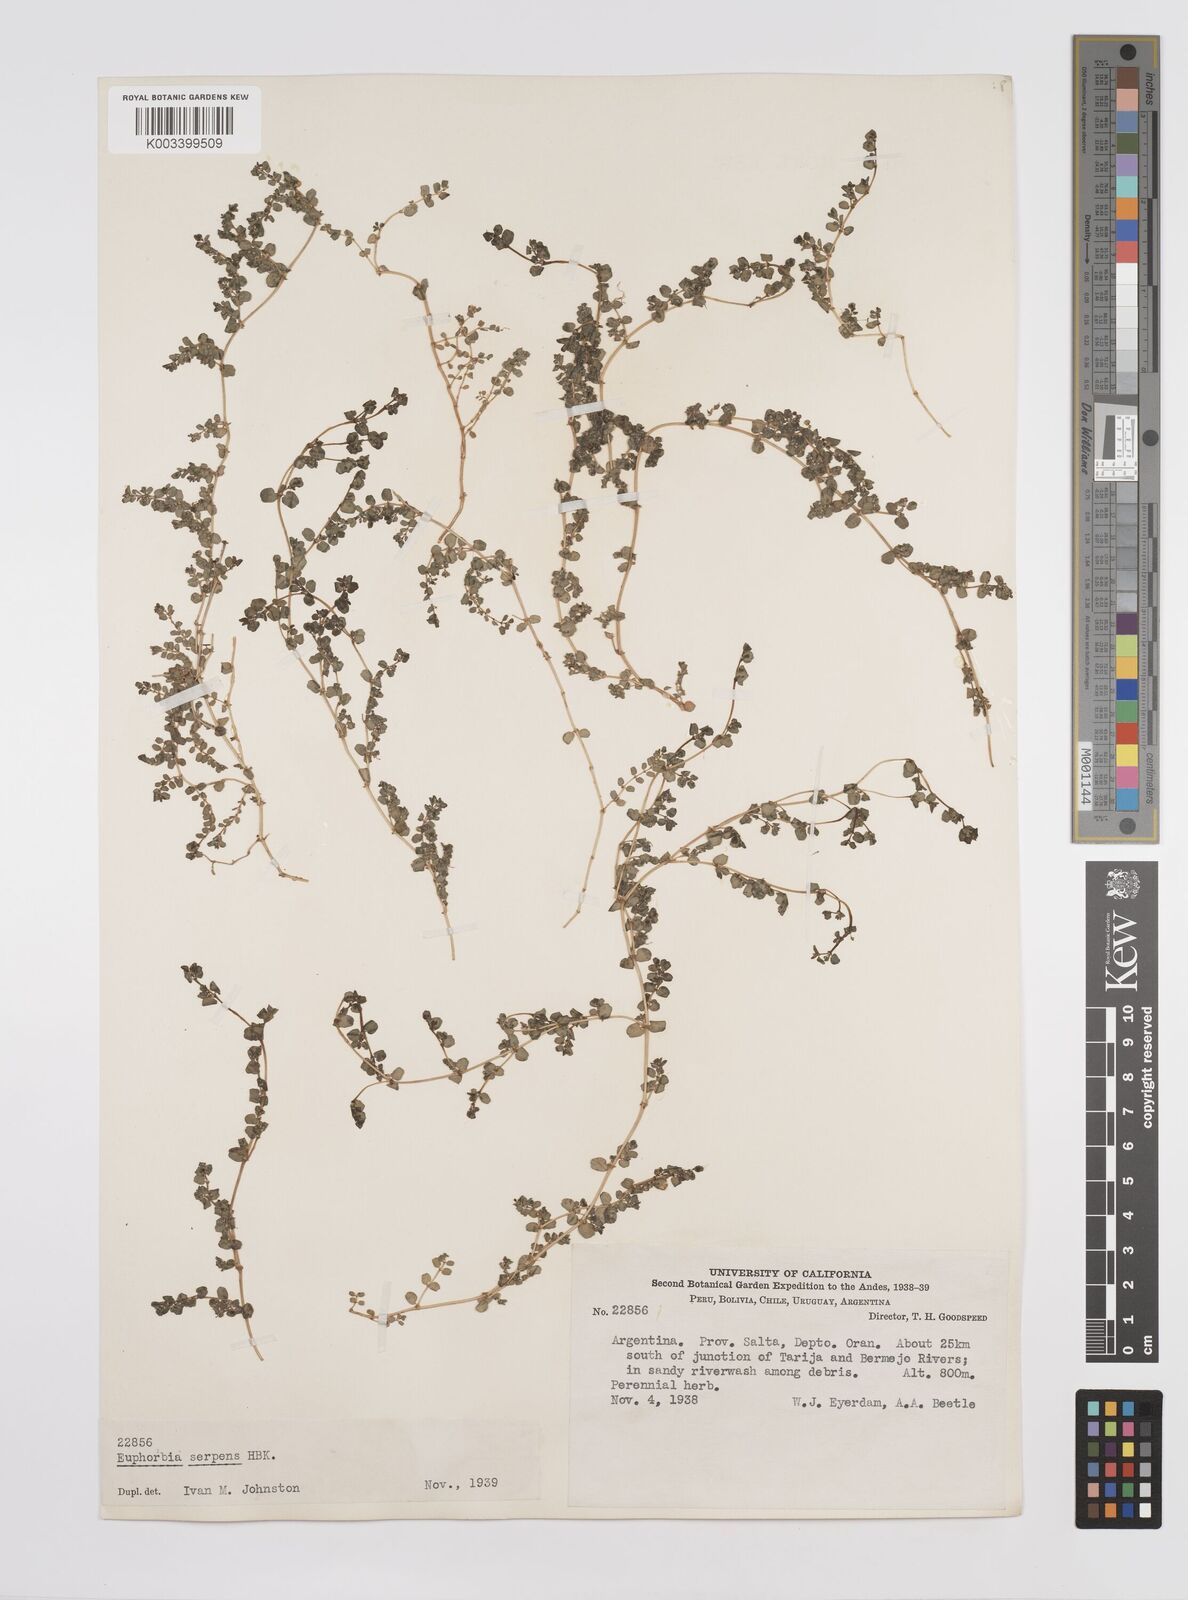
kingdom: Plantae
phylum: Tracheophyta
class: Magnoliopsida
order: Malpighiales
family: Euphorbiaceae
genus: Euphorbia
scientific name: Euphorbia
